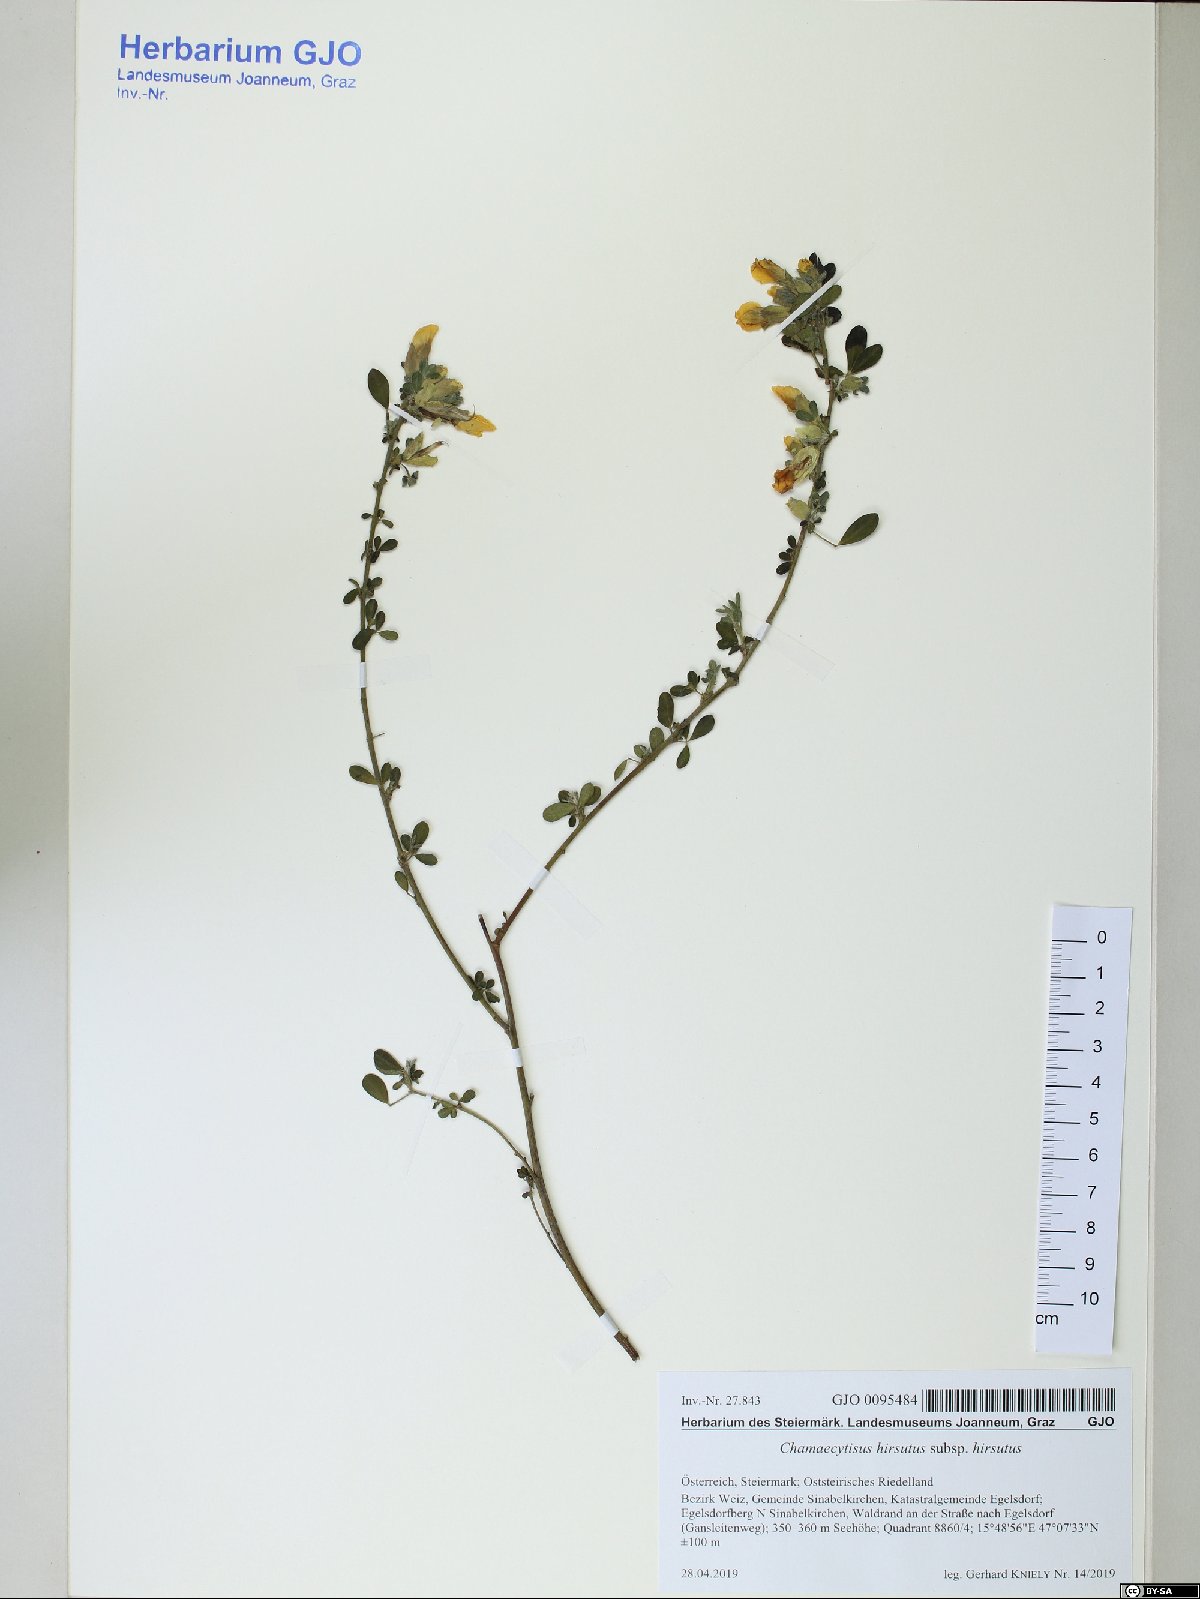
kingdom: Plantae
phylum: Tracheophyta
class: Magnoliopsida
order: Fabales
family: Fabaceae
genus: Chamaecytisus
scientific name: Chamaecytisus hirsutus
